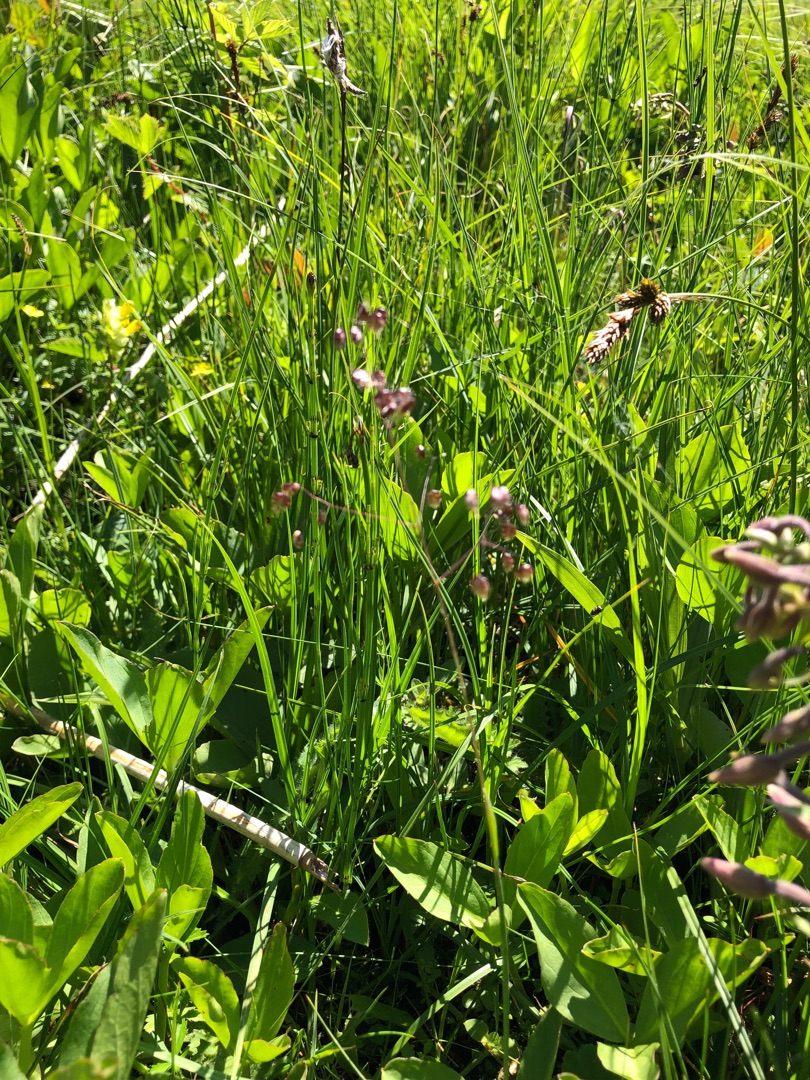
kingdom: Plantae
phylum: Tracheophyta
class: Liliopsida
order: Poales
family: Poaceae
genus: Briza
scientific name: Briza media
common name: Hjertegræs
